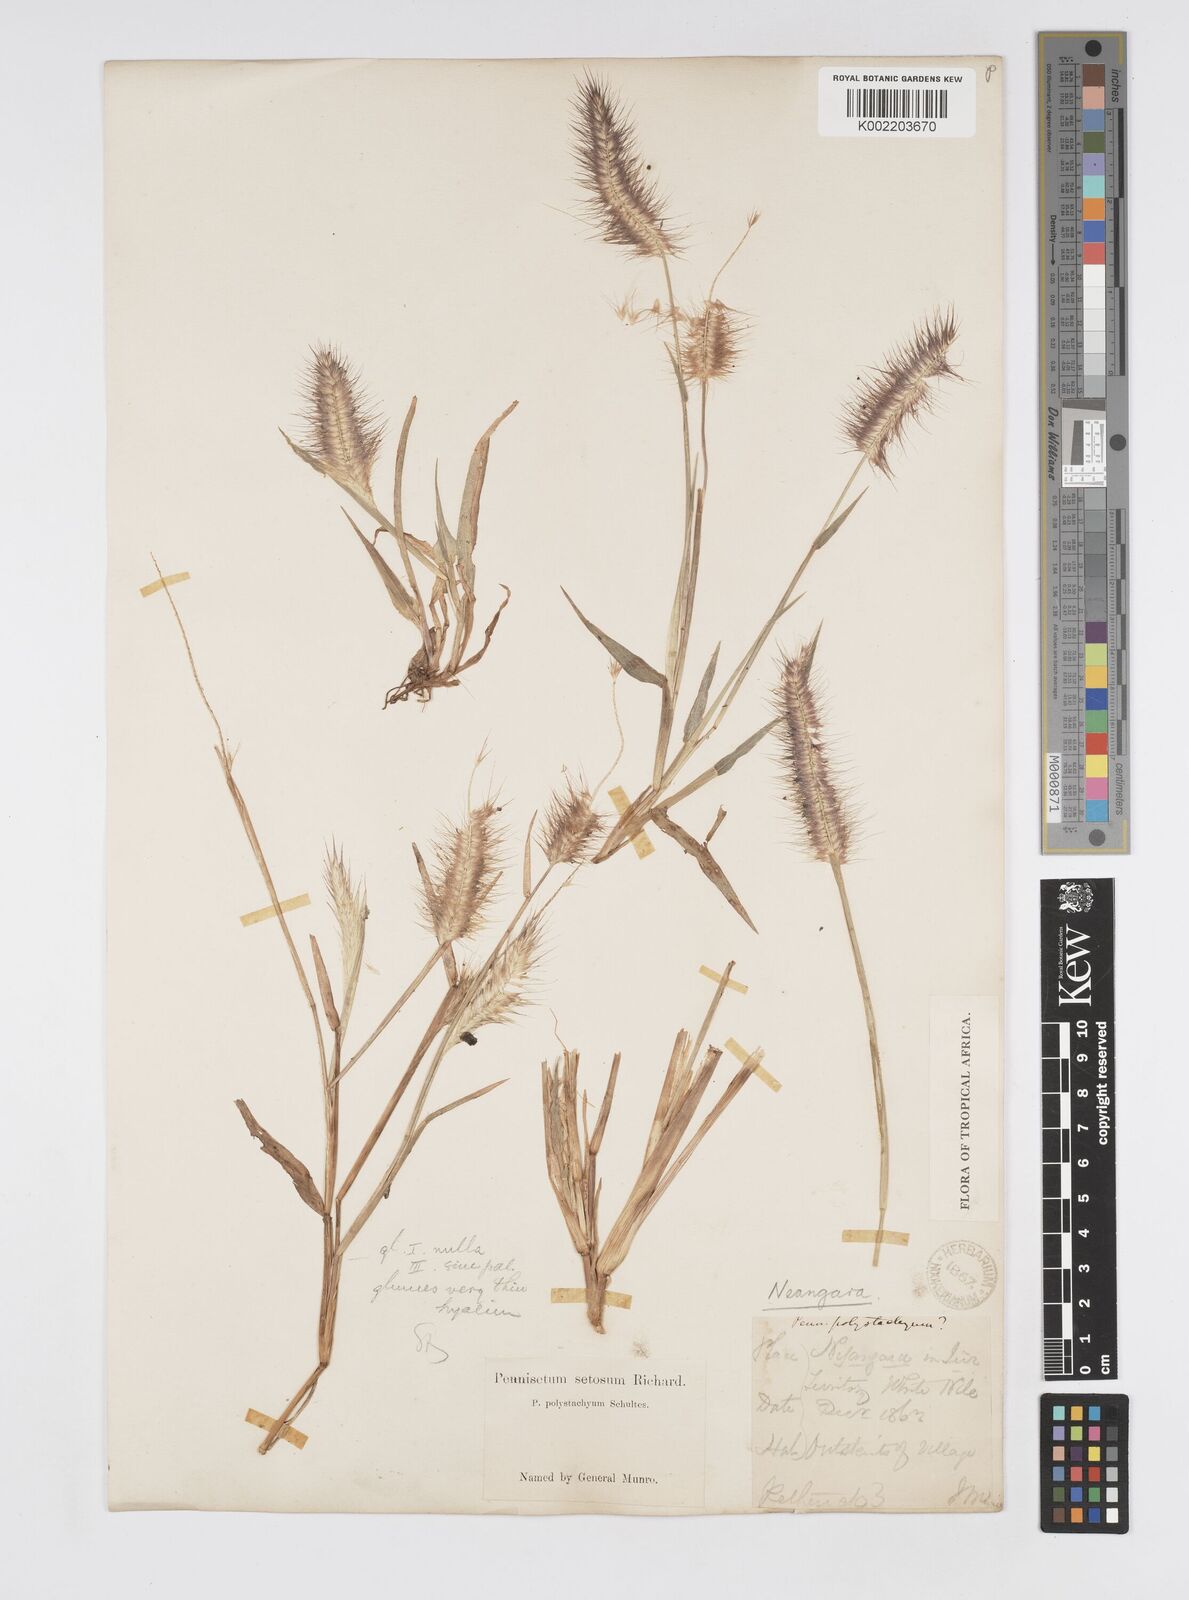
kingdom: Plantae
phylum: Tracheophyta
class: Liliopsida
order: Poales
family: Poaceae
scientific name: Poaceae
